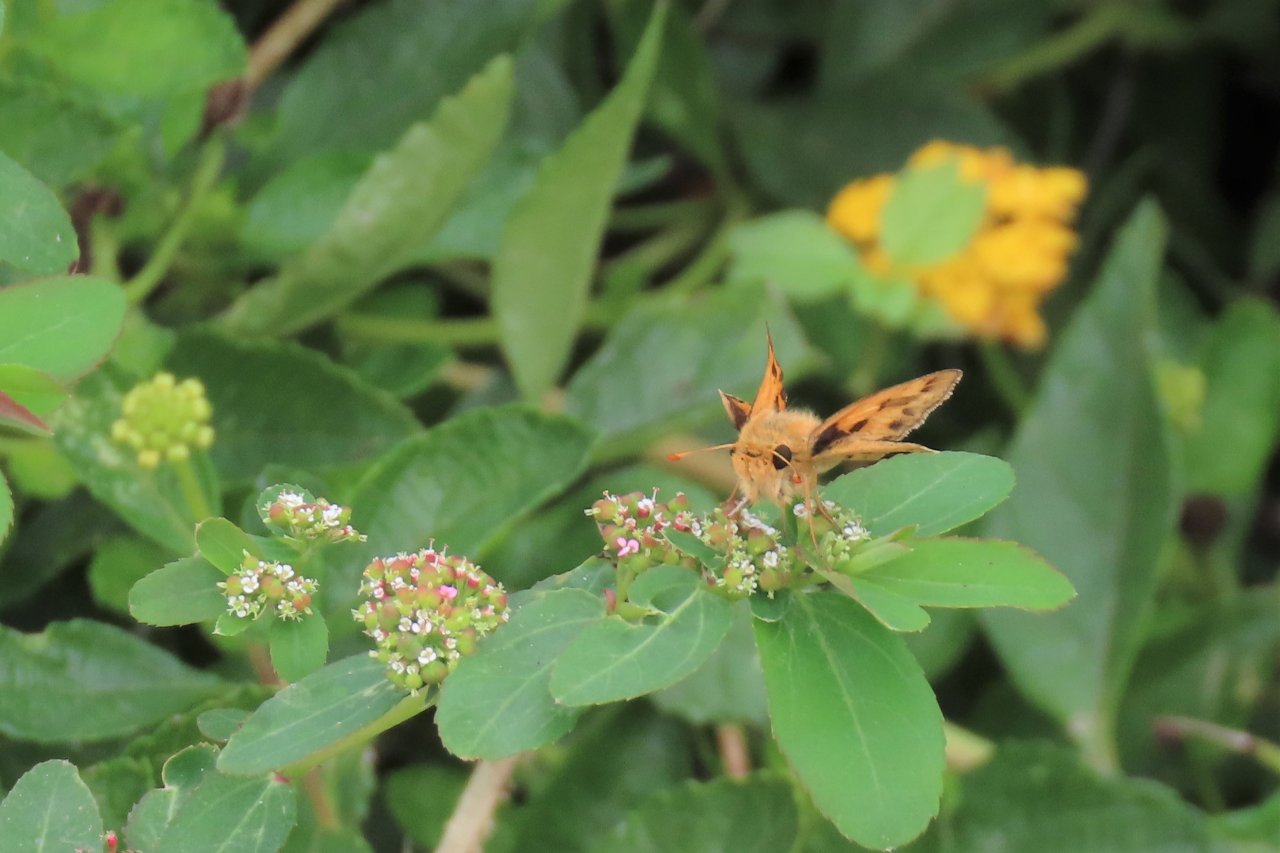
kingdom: Animalia
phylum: Arthropoda
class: Insecta
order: Lepidoptera
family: Hesperiidae
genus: Hylephila
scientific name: Hylephila phyleus
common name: Fiery Skipper
